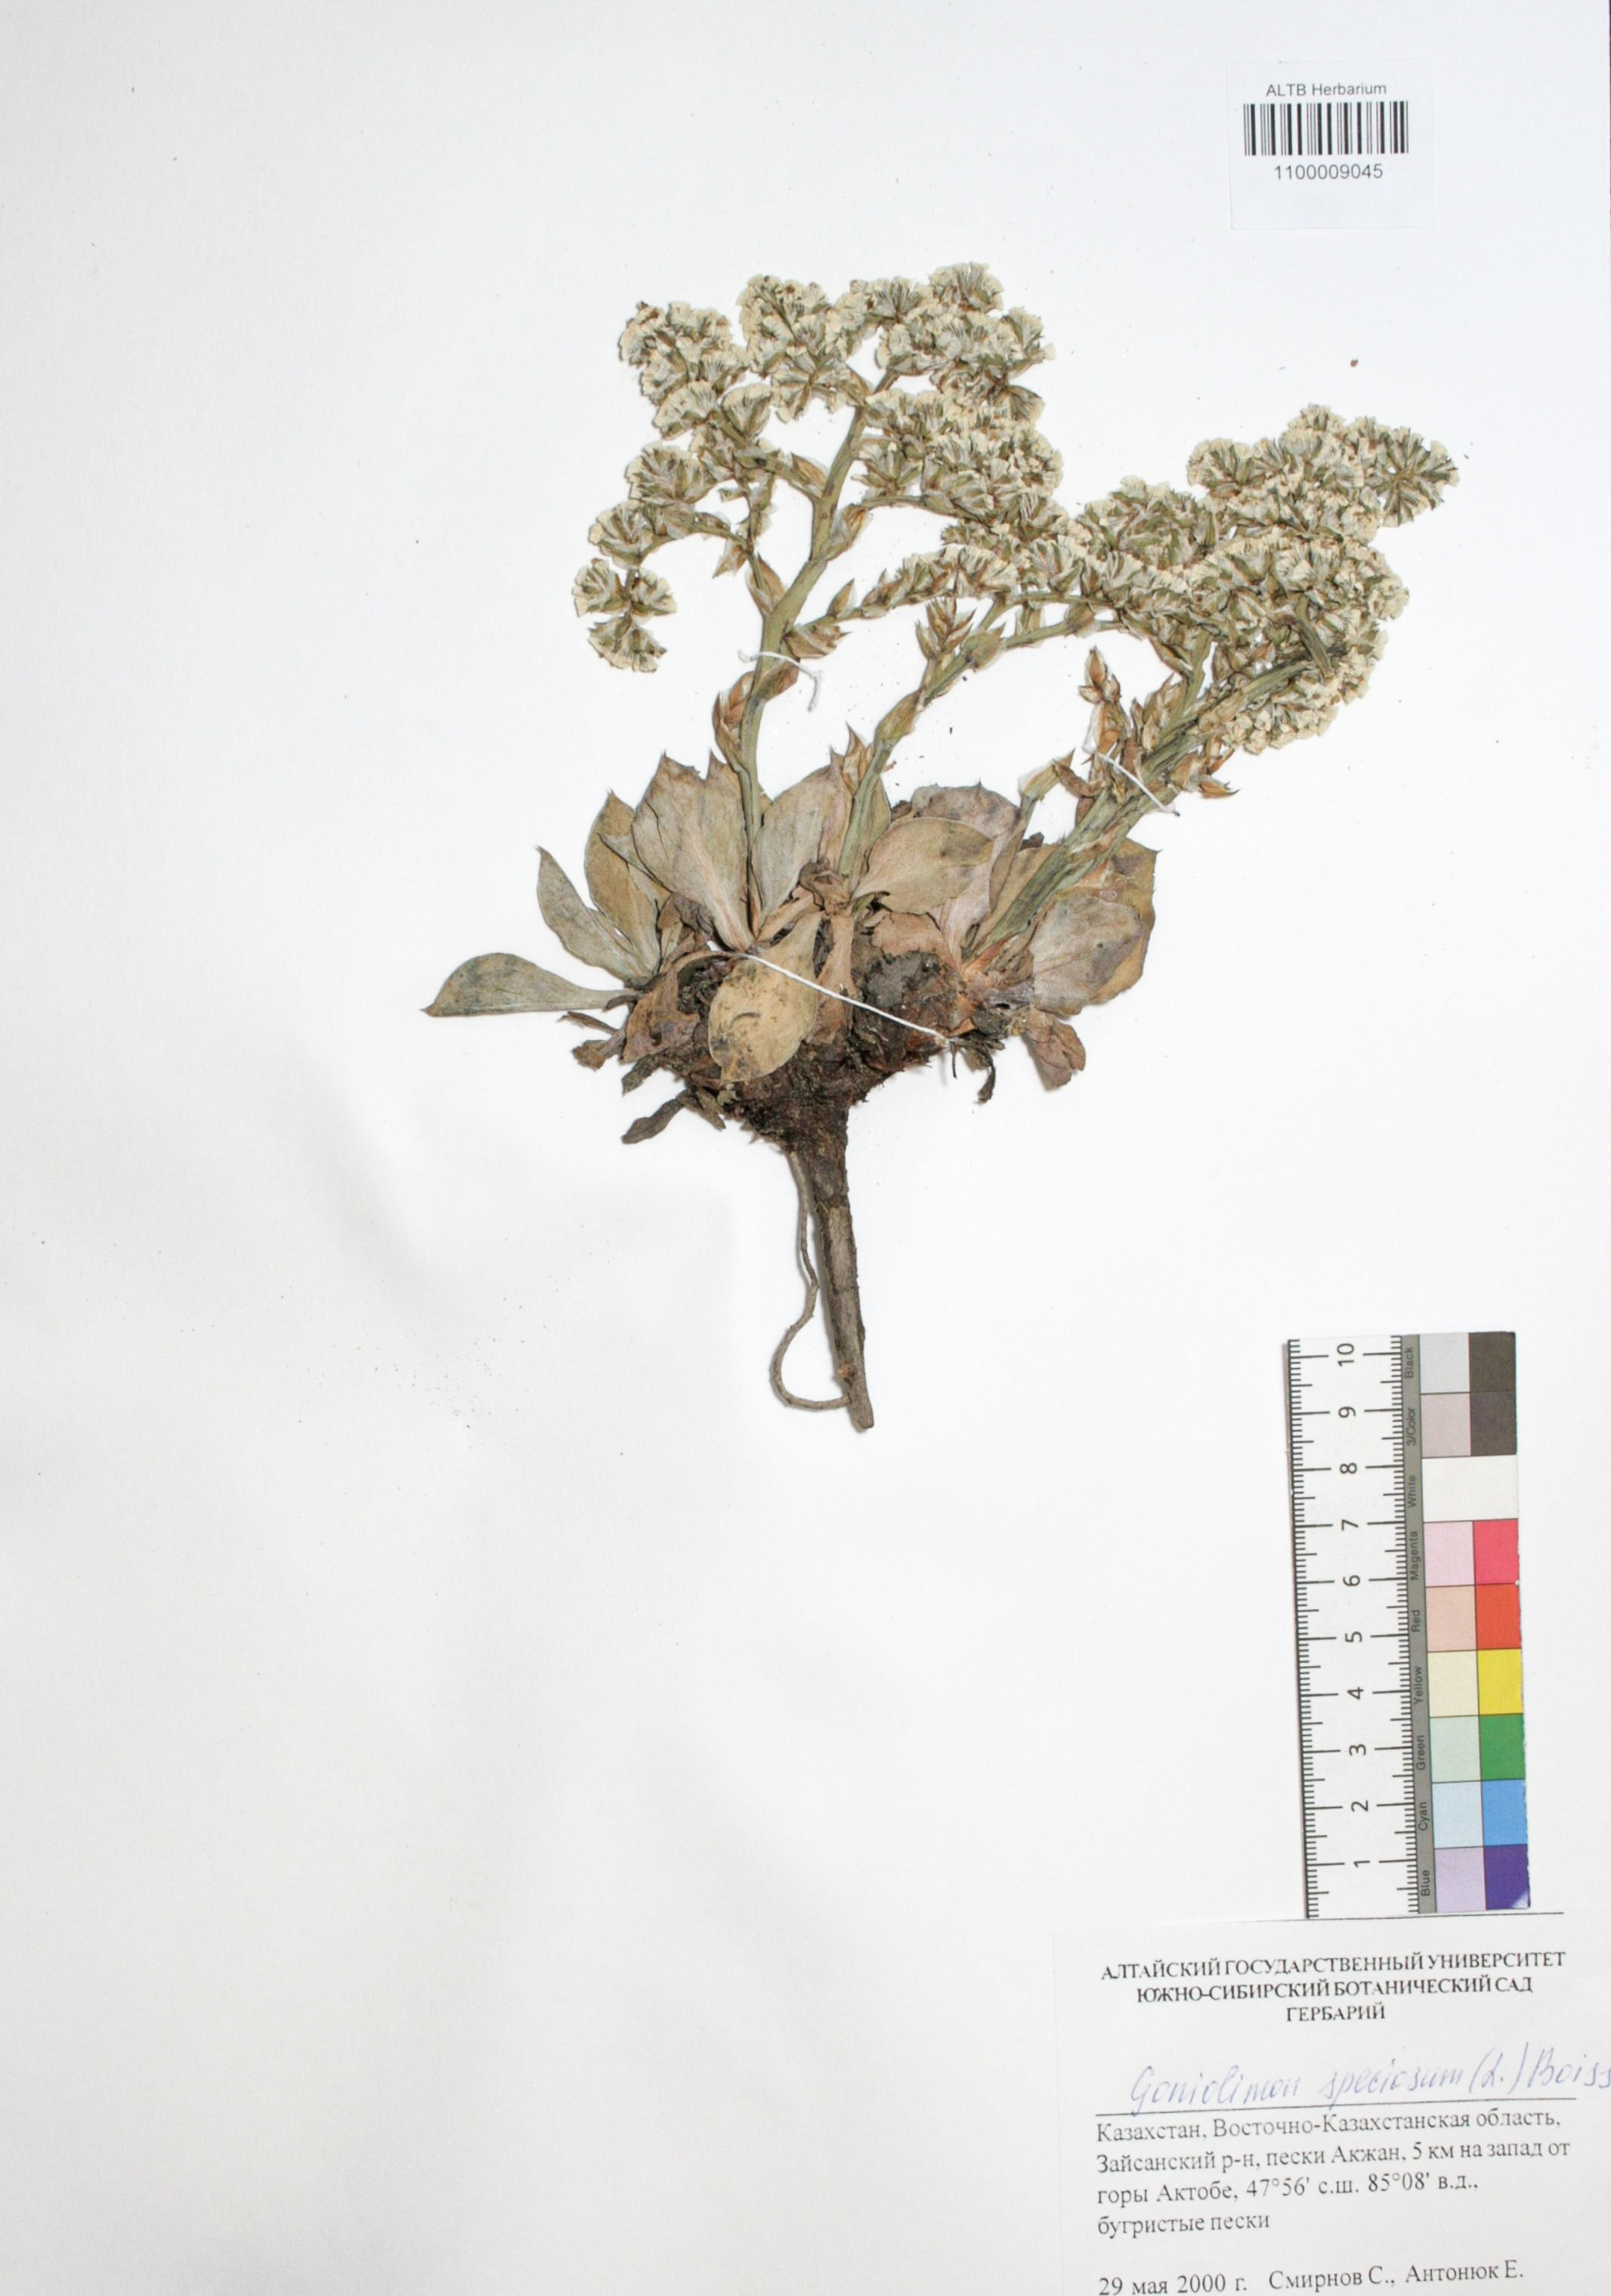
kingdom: Plantae
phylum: Tracheophyta
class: Magnoliopsida
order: Caryophyllales
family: Plumbaginaceae
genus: Goniolimon
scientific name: Goniolimon speciosum
